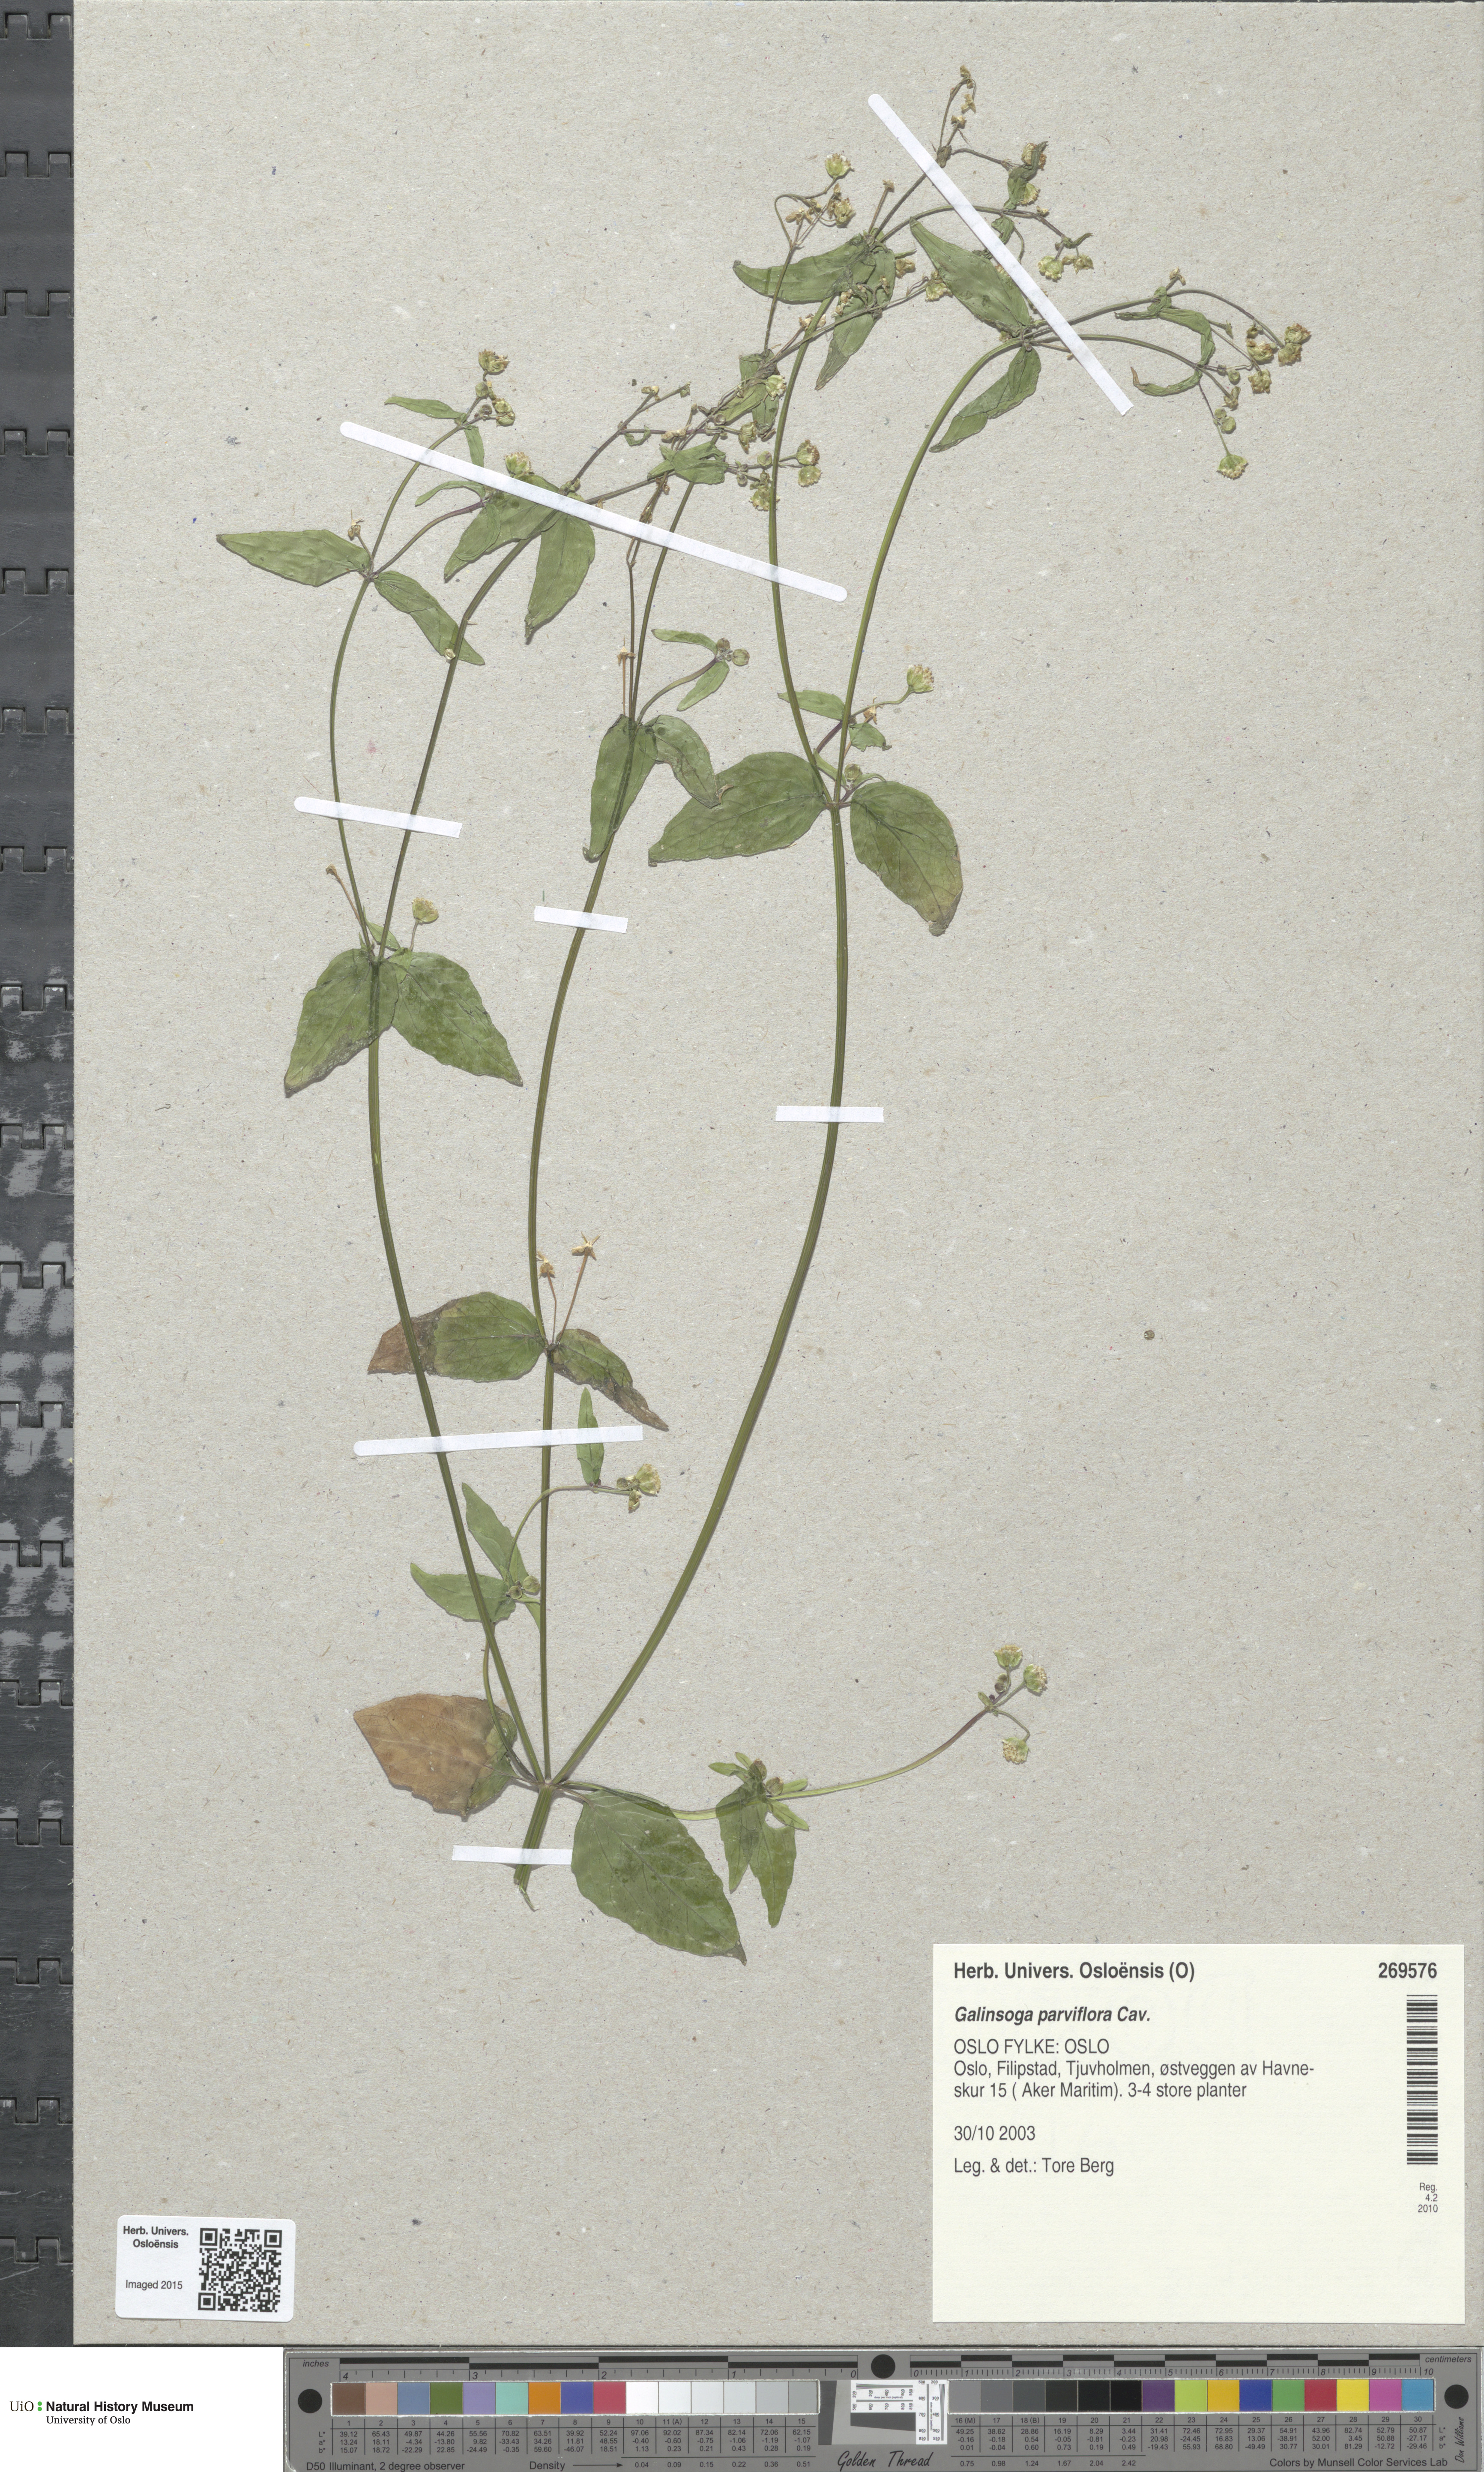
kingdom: Plantae
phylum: Tracheophyta
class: Magnoliopsida
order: Asterales
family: Asteraceae
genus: Galinsoga
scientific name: Galinsoga parviflora
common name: Gallant soldier
